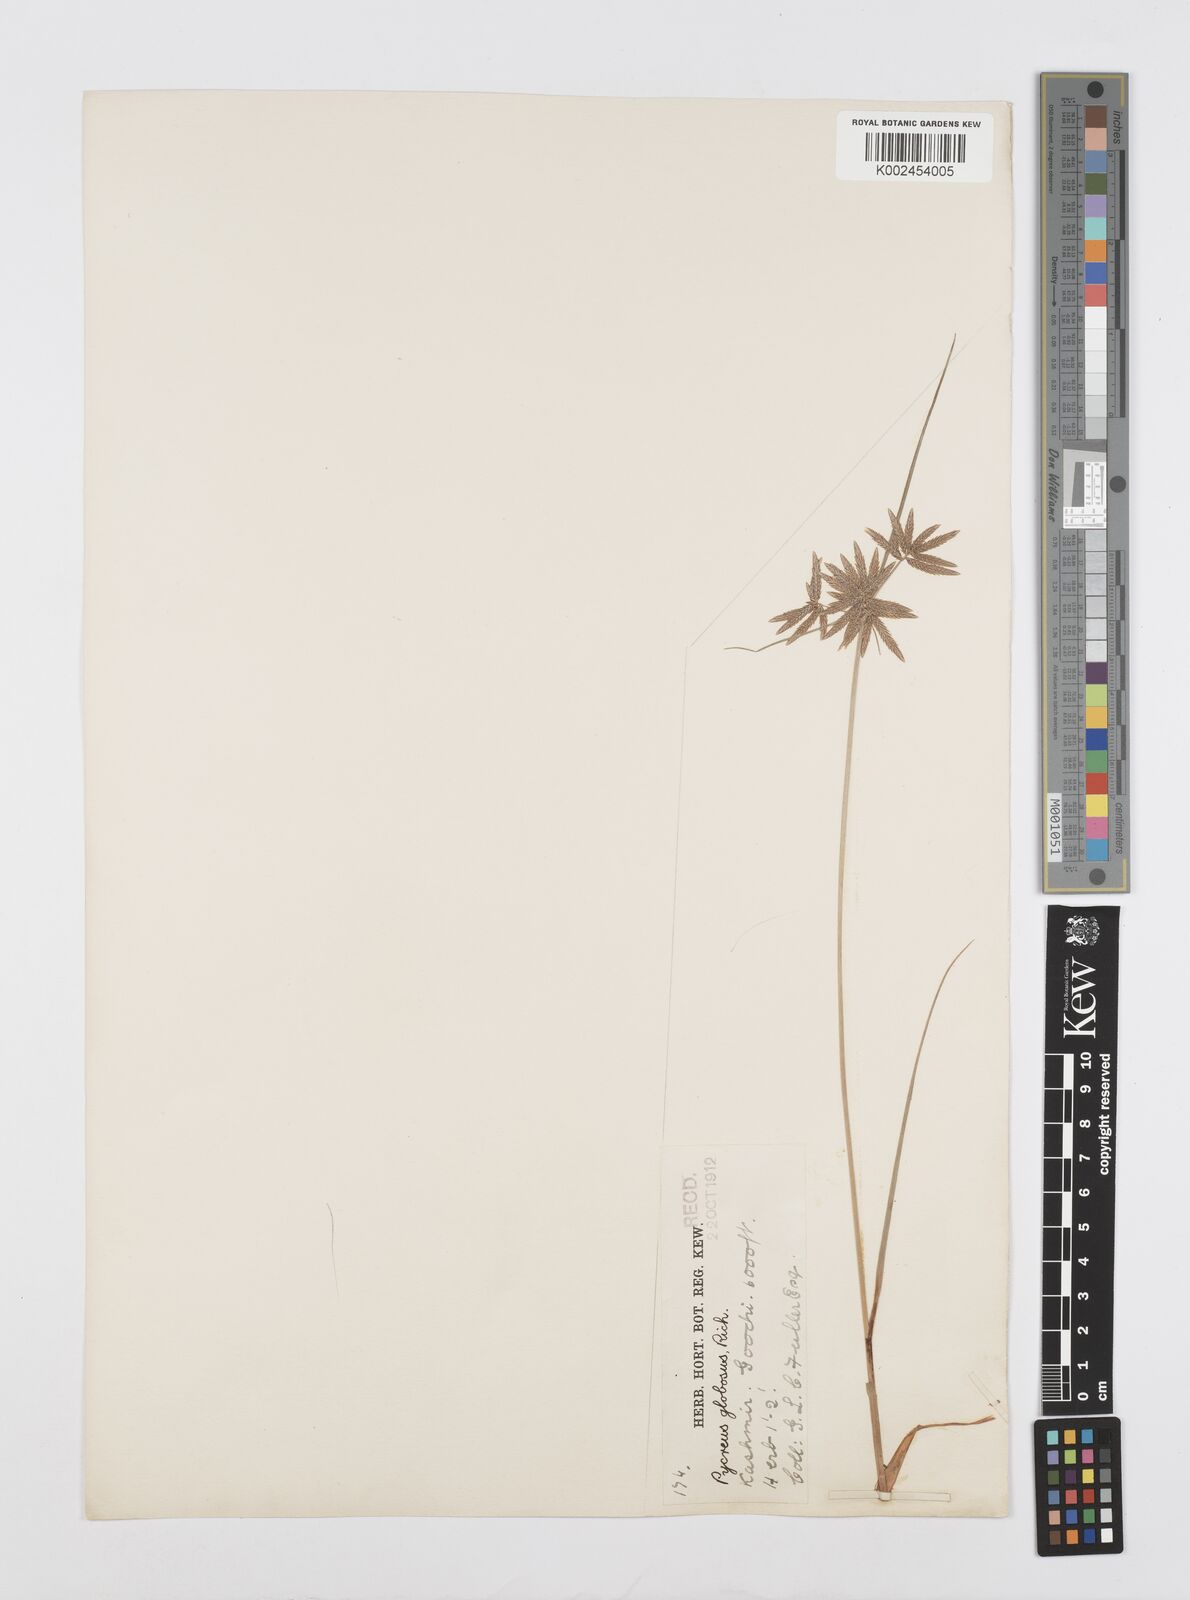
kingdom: Plantae
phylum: Tracheophyta
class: Liliopsida
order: Poales
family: Cyperaceae
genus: Cyperus
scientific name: Cyperus flavidus
